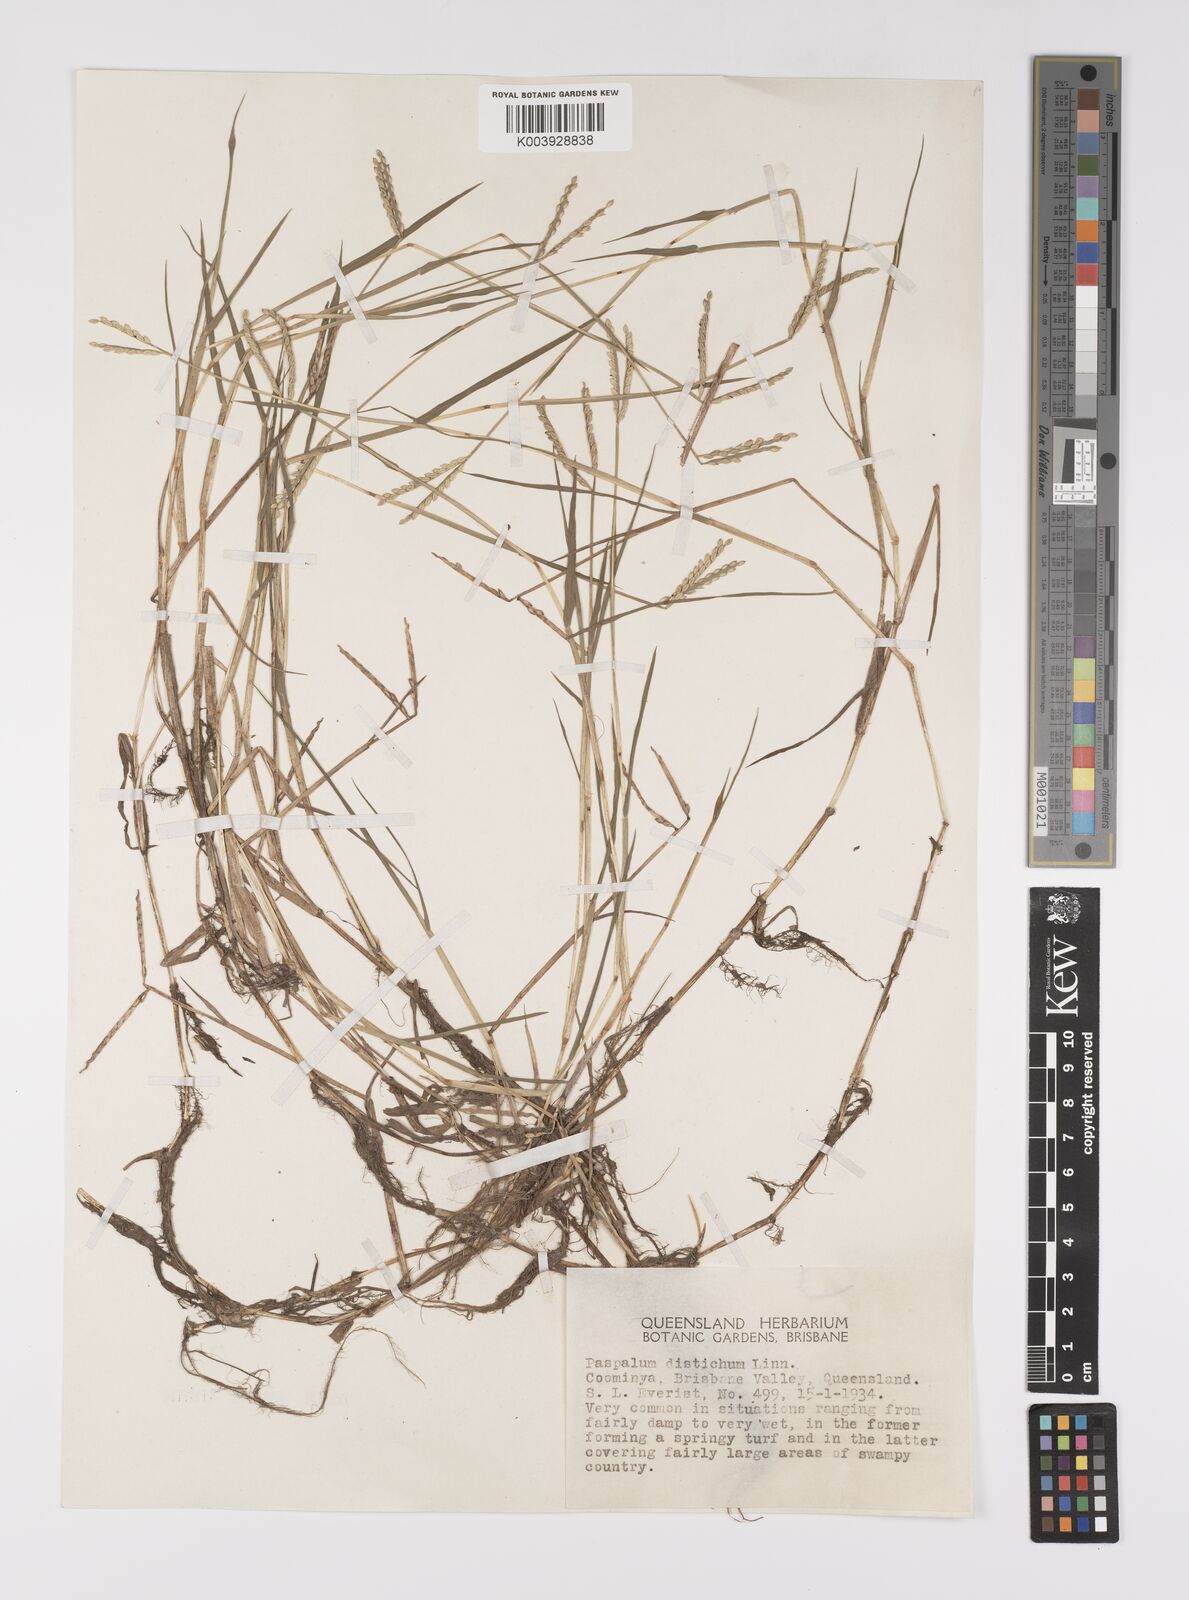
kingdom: Plantae
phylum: Tracheophyta
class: Liliopsida
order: Poales
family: Poaceae
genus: Paspalum
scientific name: Paspalum distichum
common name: Knotgrass
